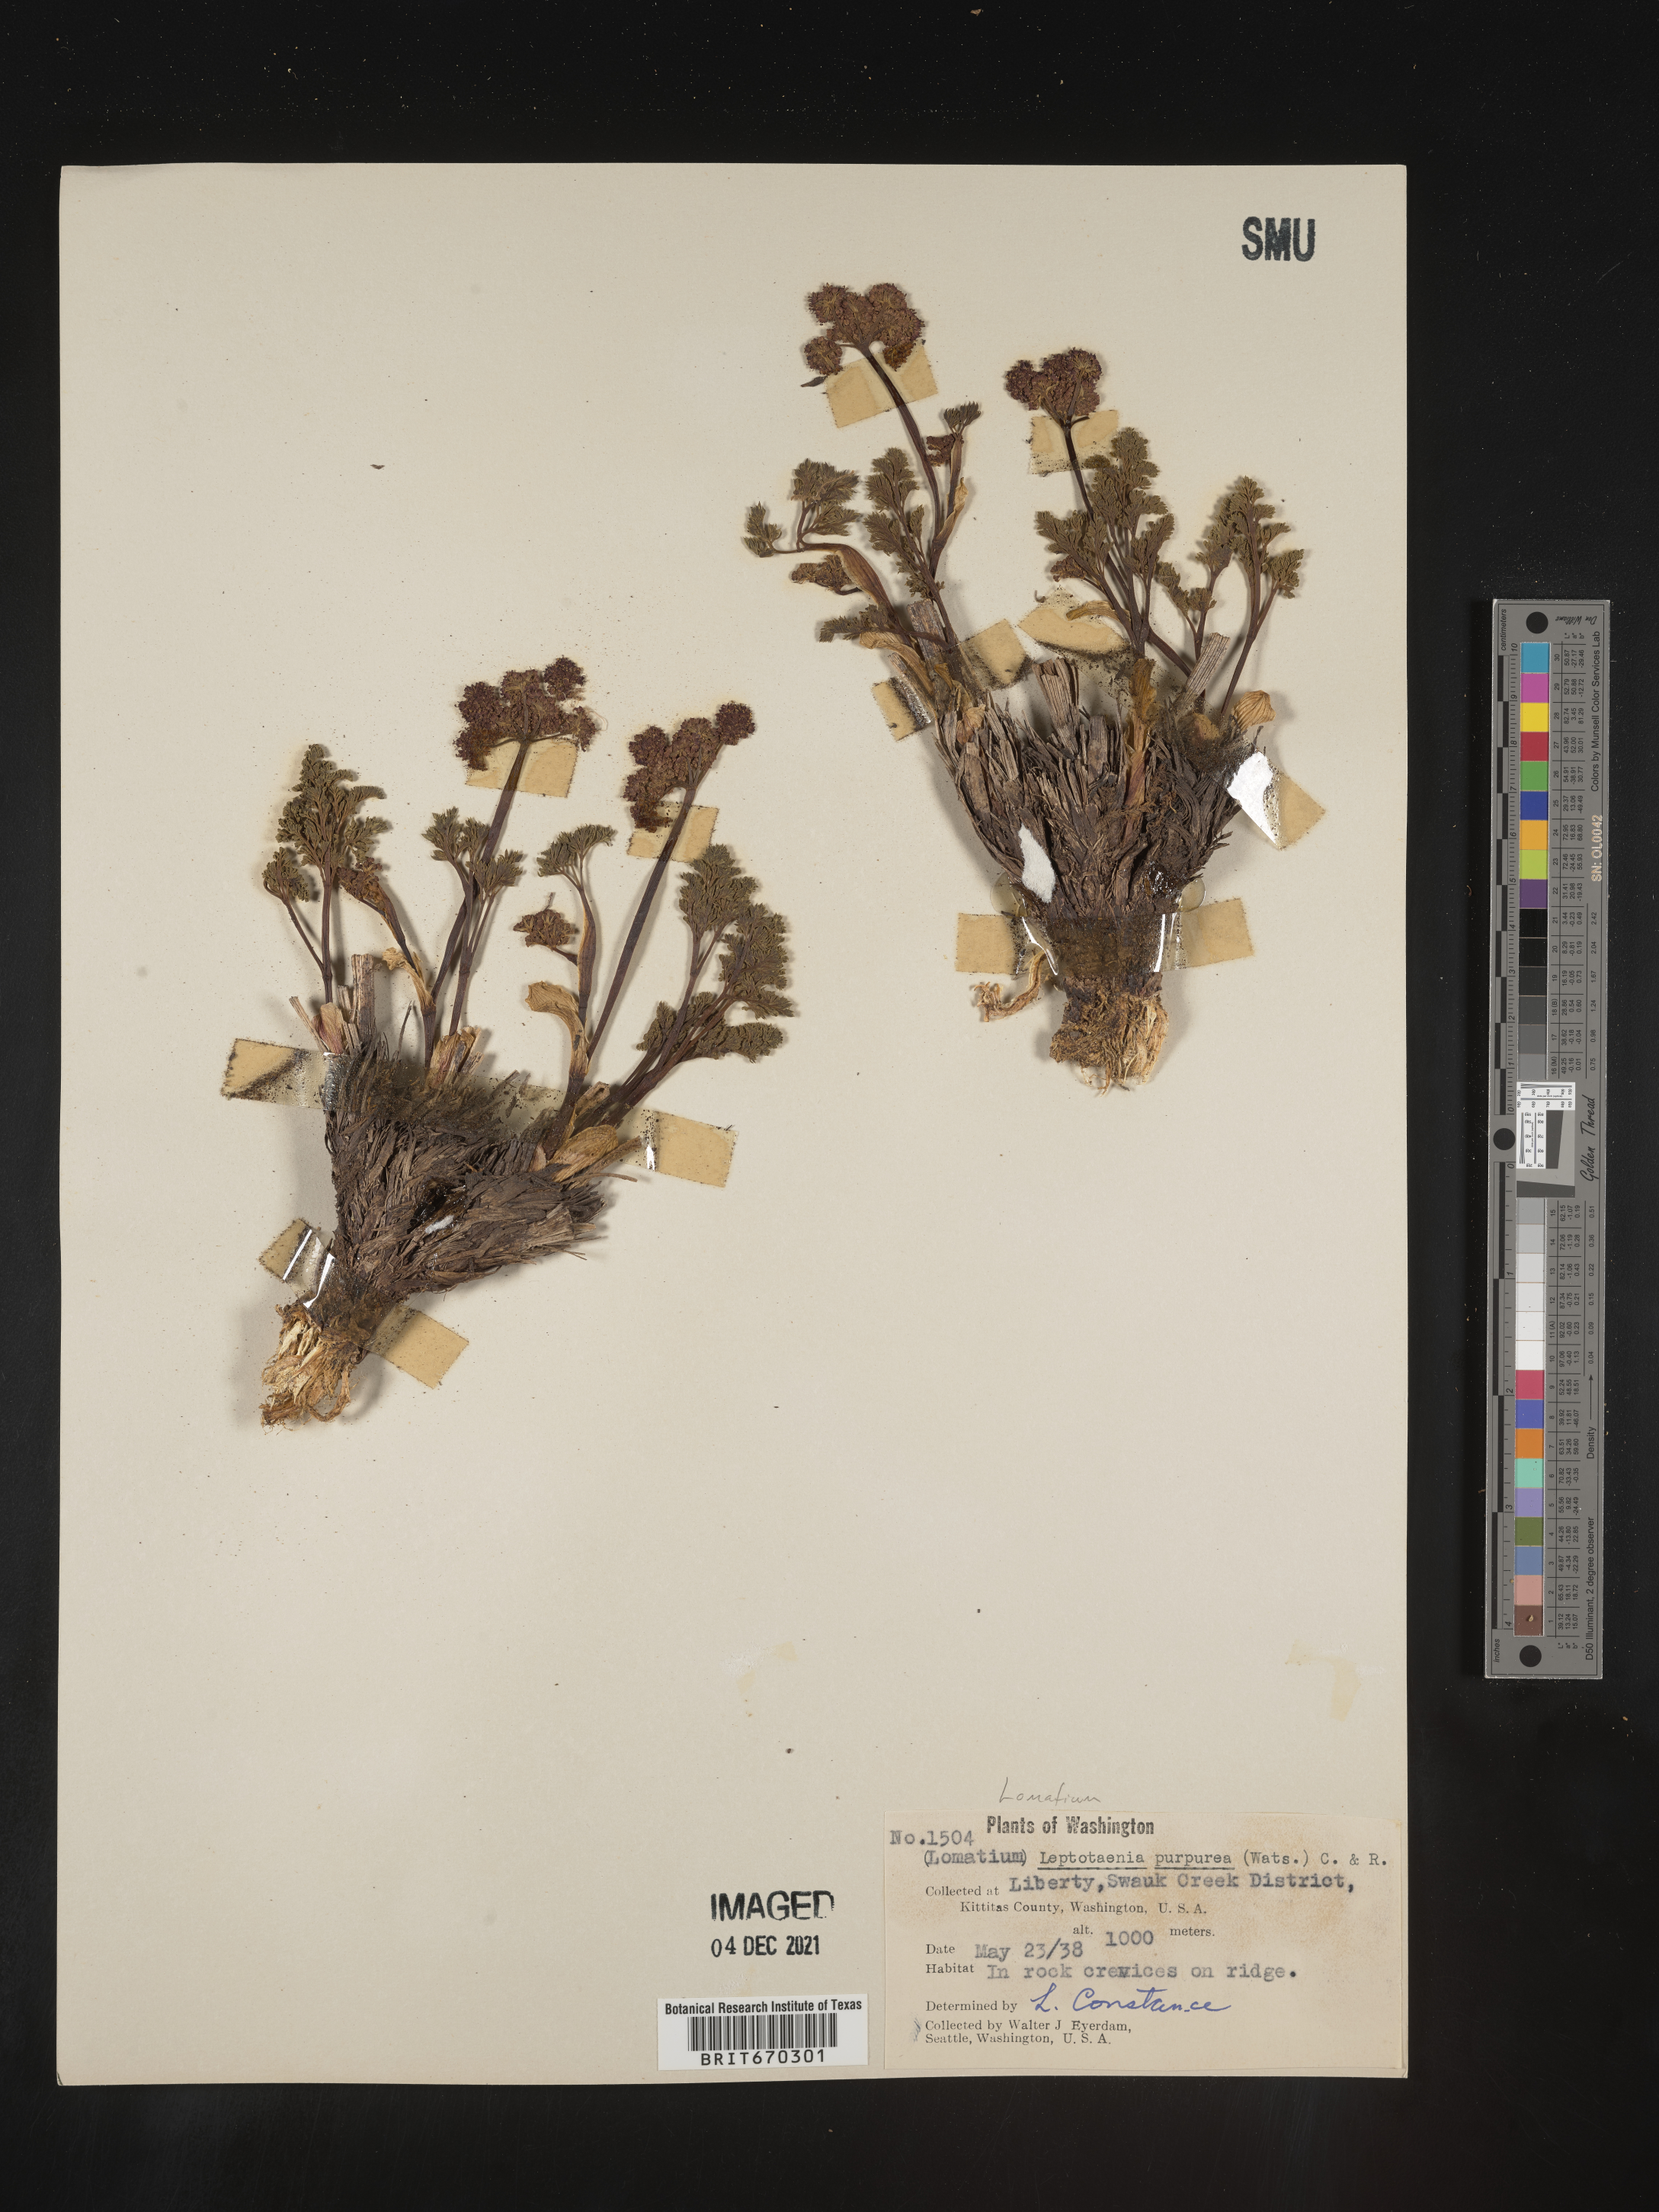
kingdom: Plantae
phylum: Tracheophyta
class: Magnoliopsida
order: Apiales
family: Apiaceae
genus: Lomatium
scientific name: Lomatium columbianum
